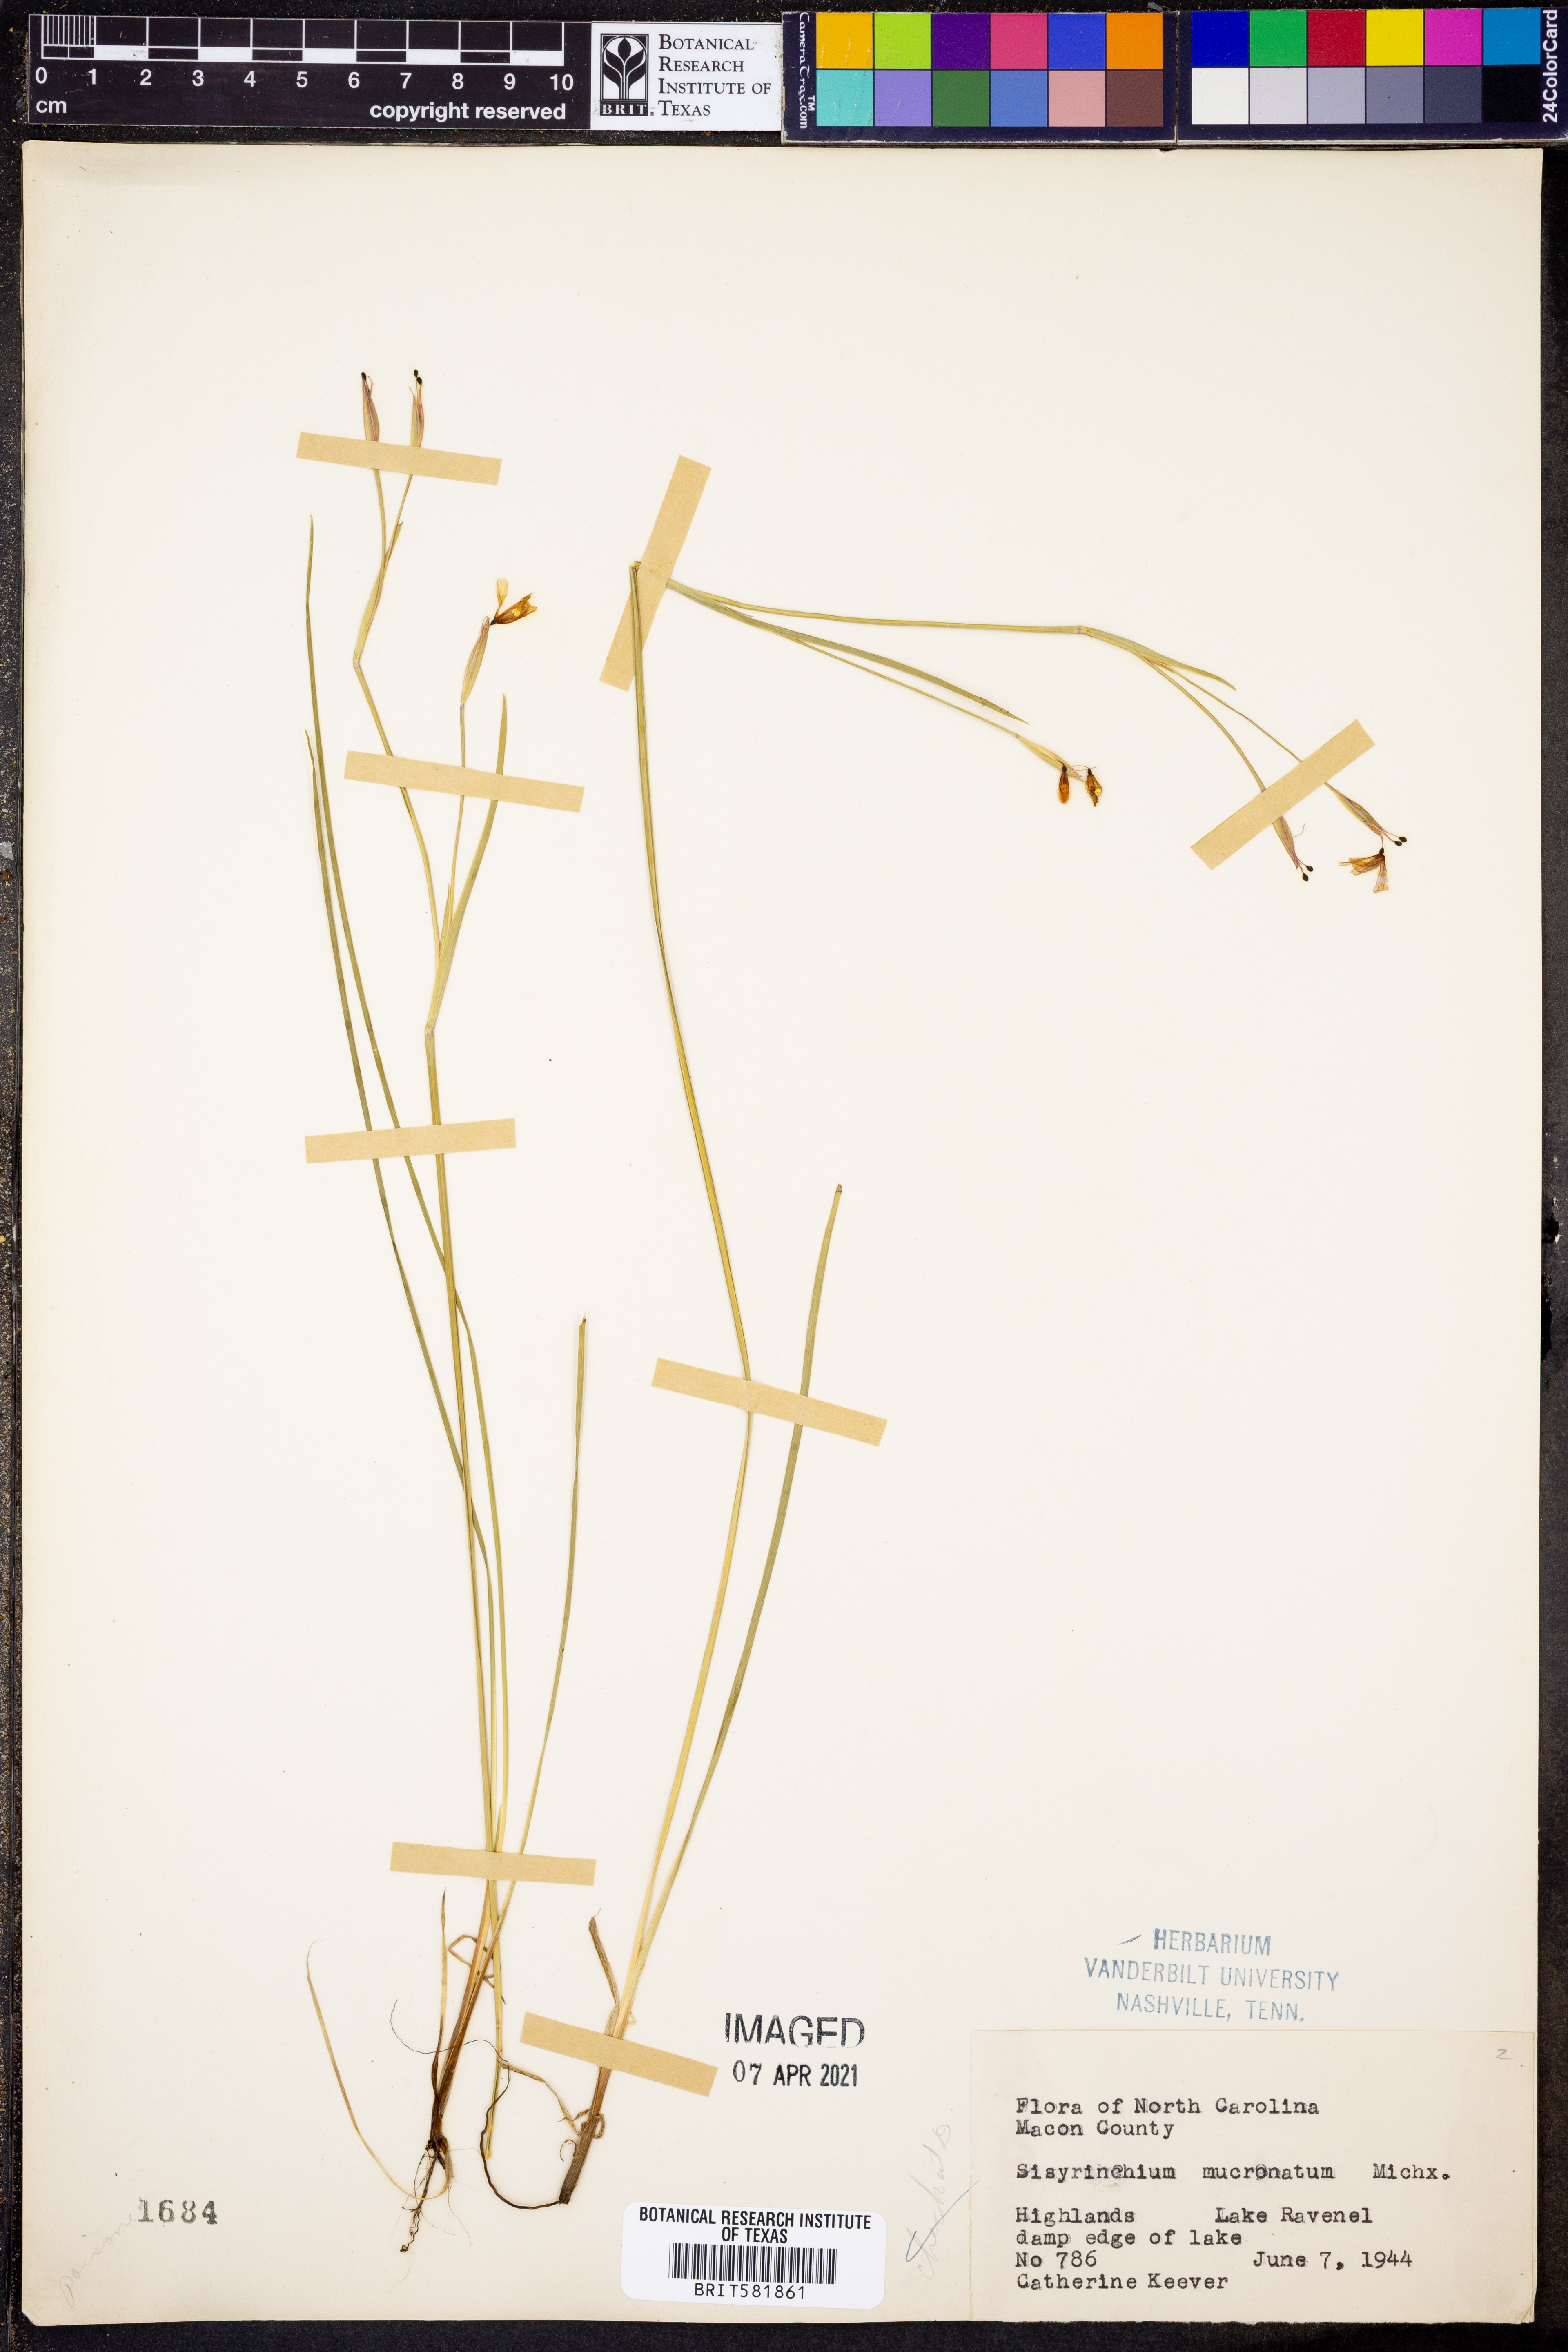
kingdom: Plantae
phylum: Tracheophyta
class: Liliopsida
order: Asparagales
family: Iridaceae
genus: Sisyrinchium
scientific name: Sisyrinchium mucronatum
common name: Eastern blue-eyed-grass
